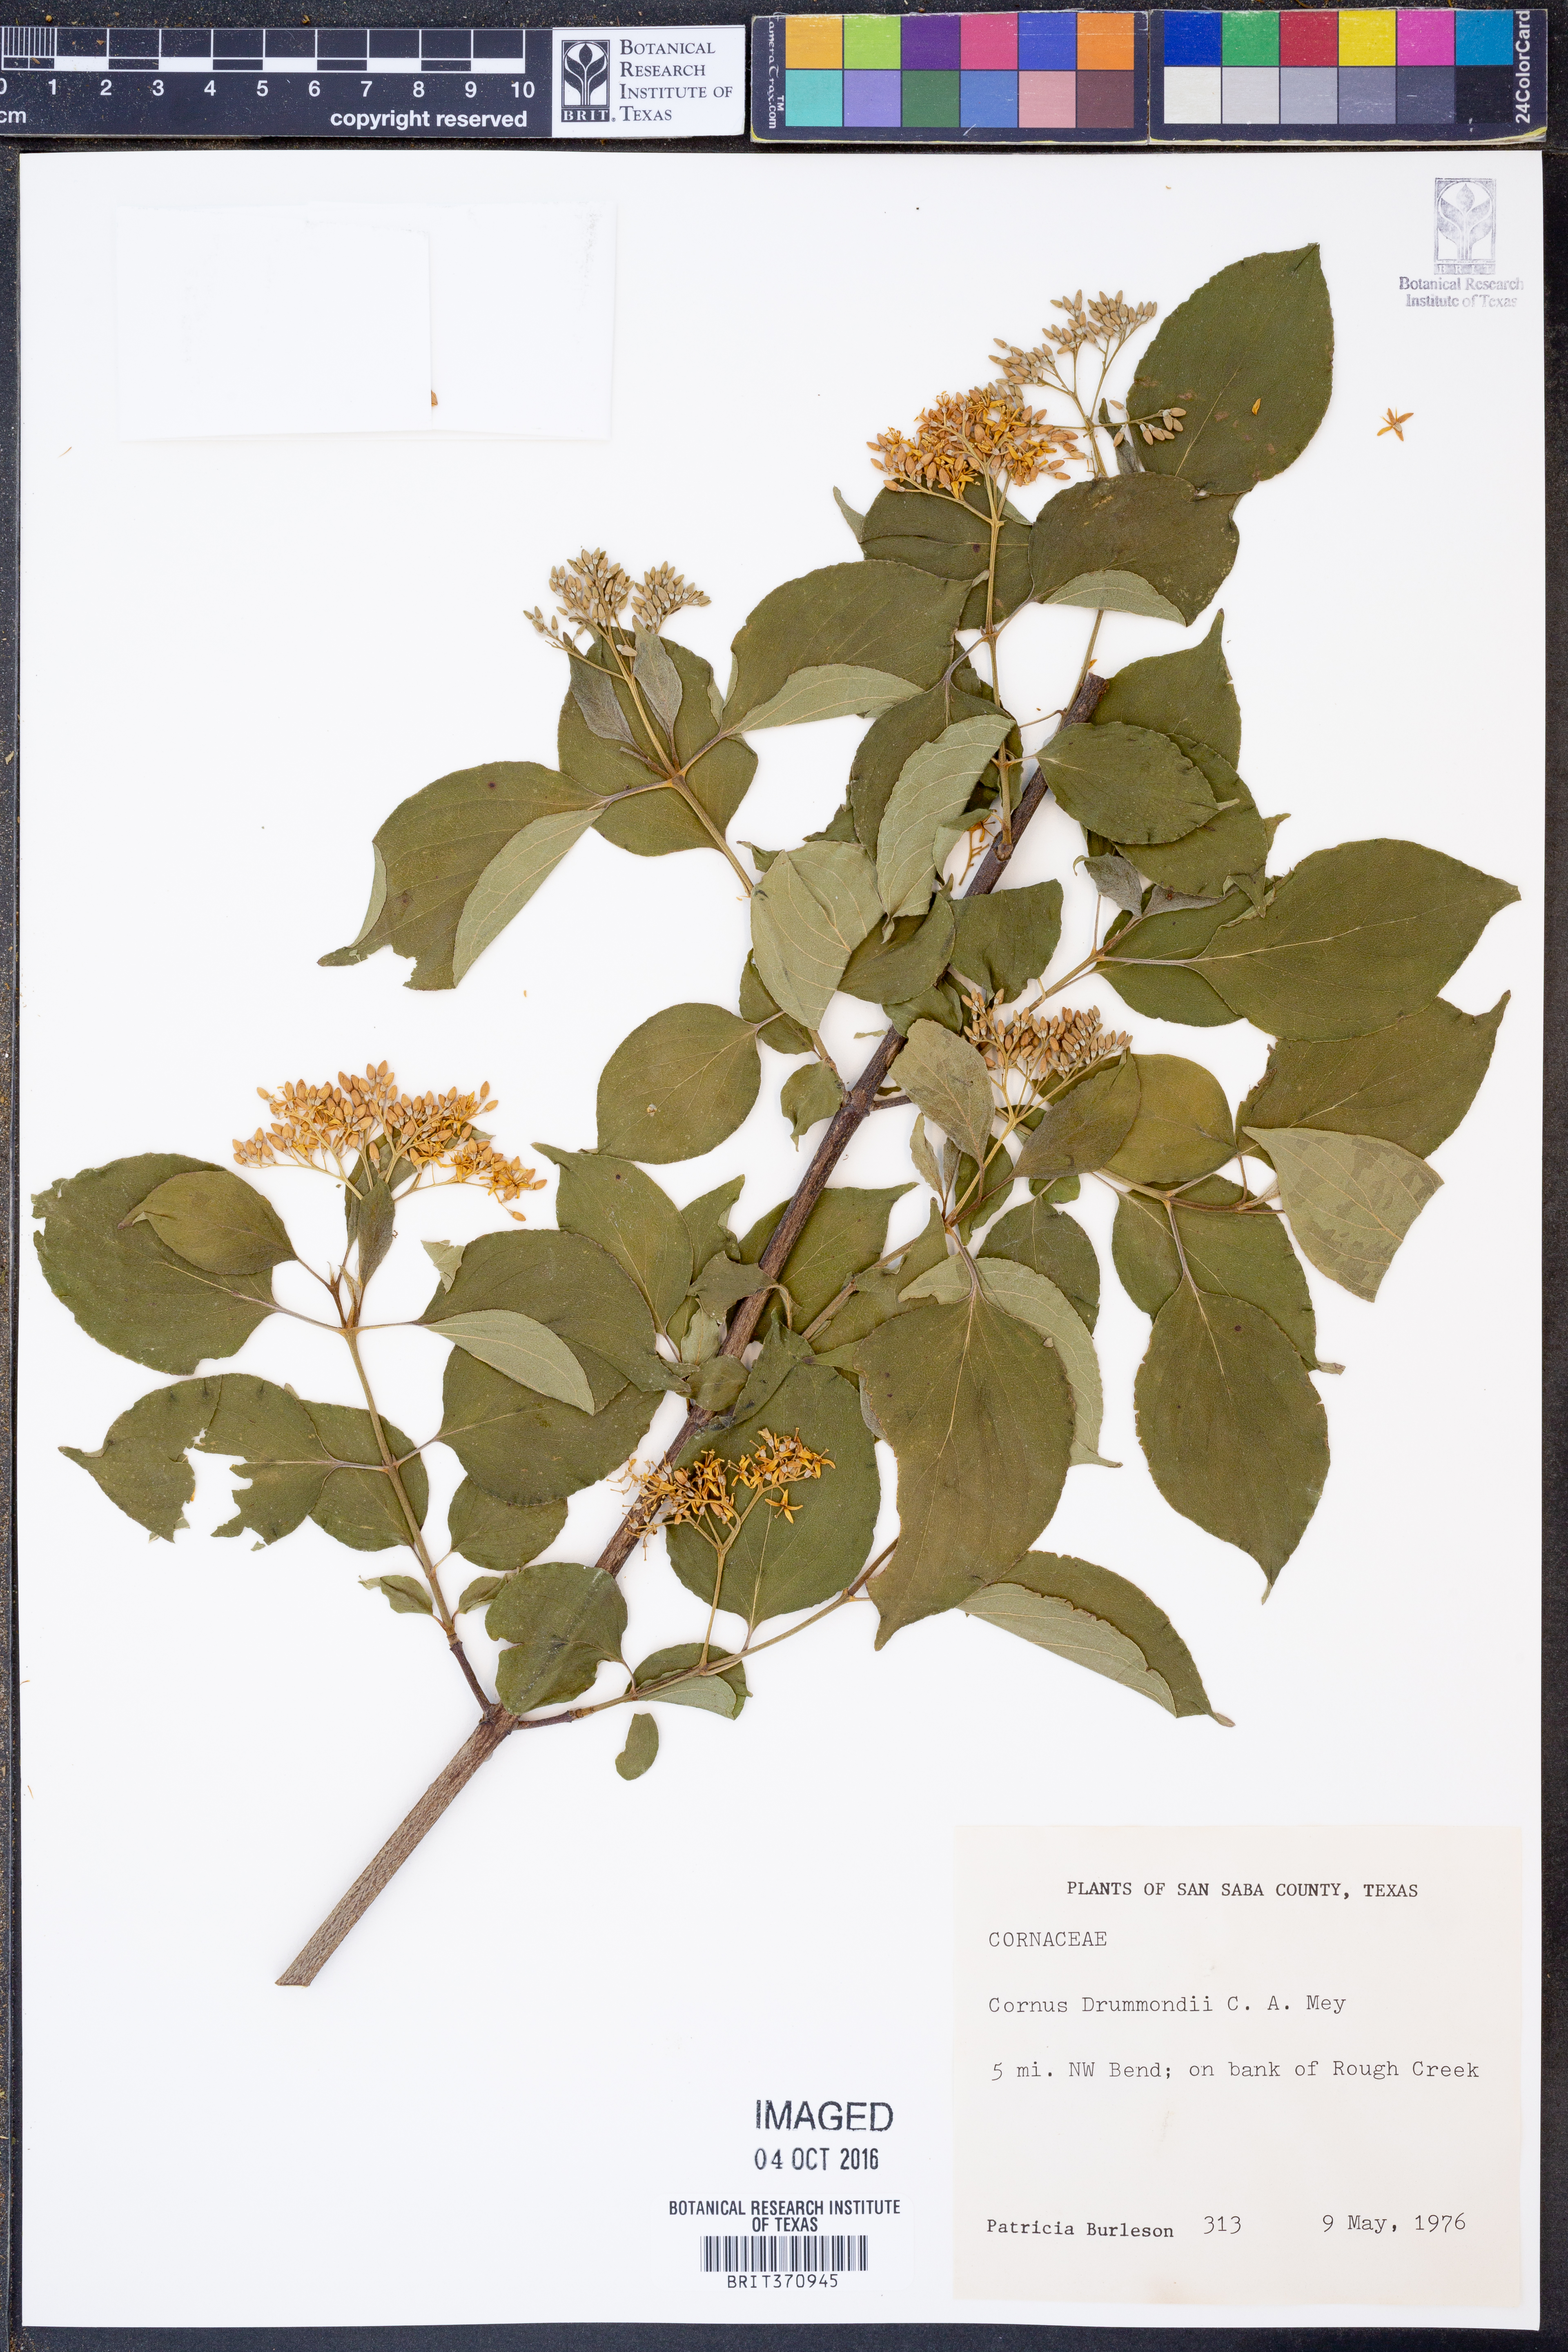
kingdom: Plantae
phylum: Tracheophyta
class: Magnoliopsida
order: Cornales
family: Cornaceae
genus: Cornus
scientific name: Cornus drummondii
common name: Rough-leaf dogwood
